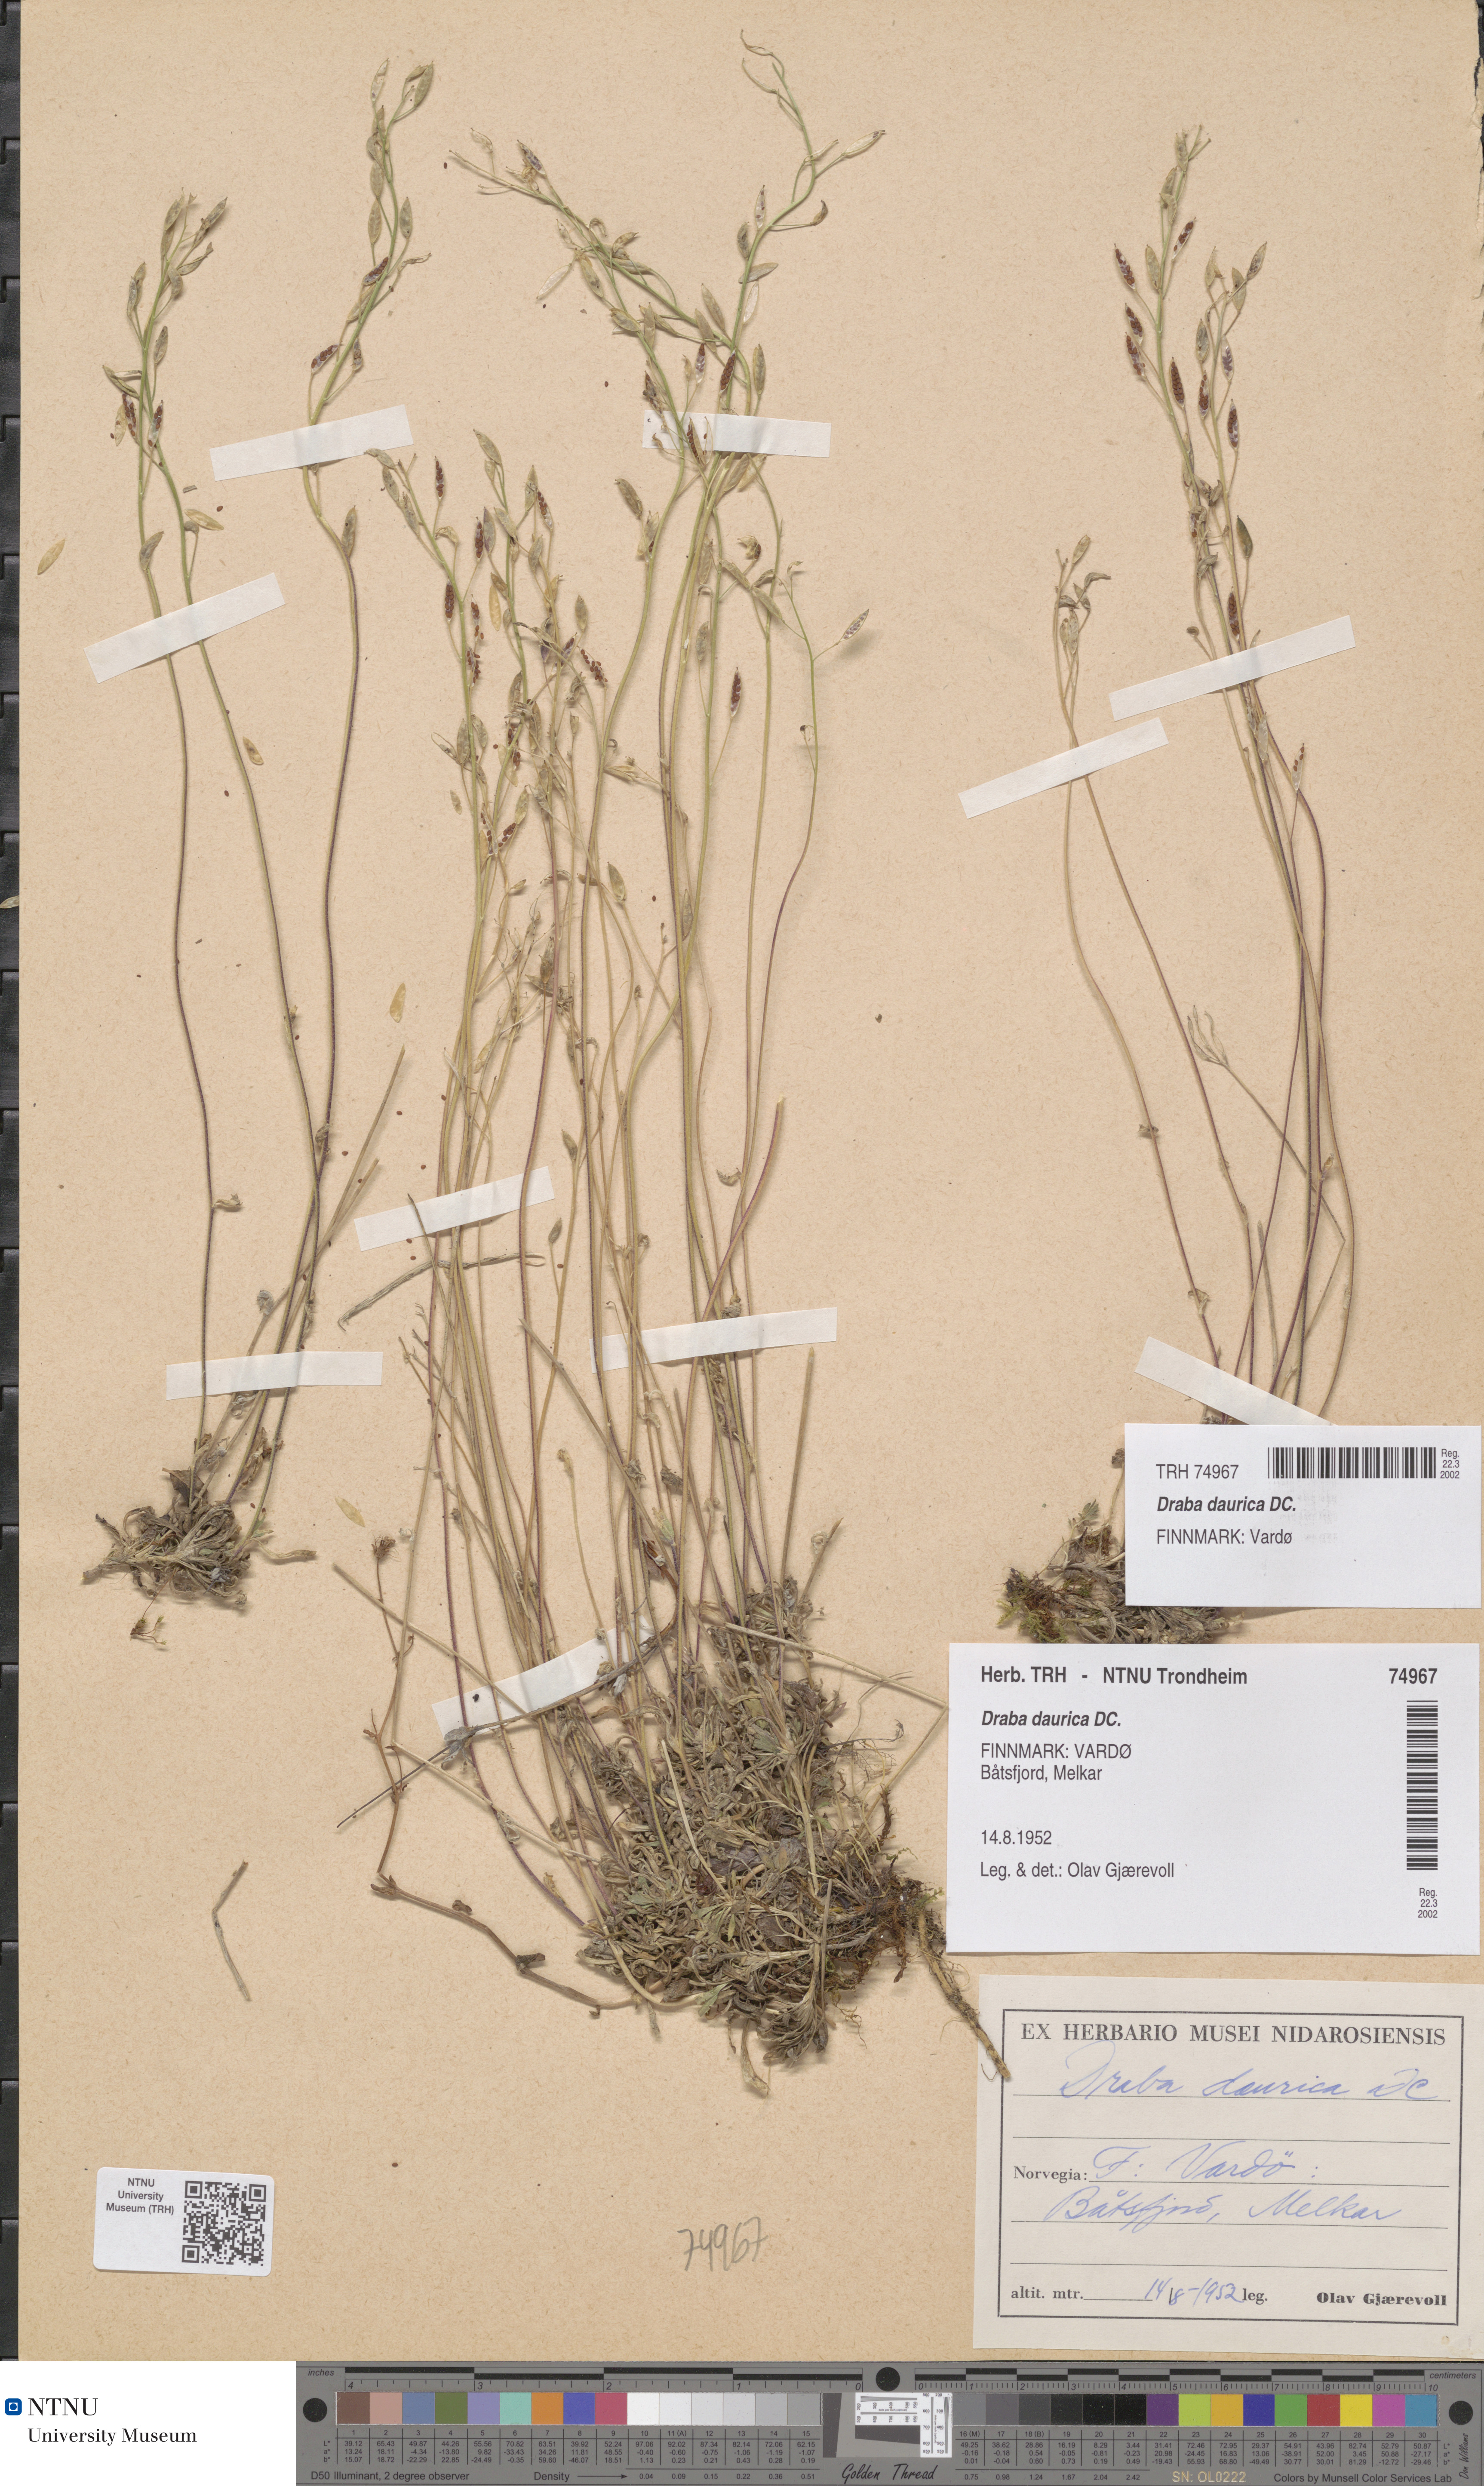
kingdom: Plantae
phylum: Tracheophyta
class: Magnoliopsida
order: Brassicales
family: Brassicaceae
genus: Draba
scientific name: Draba glabella
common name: Glaucous draba
